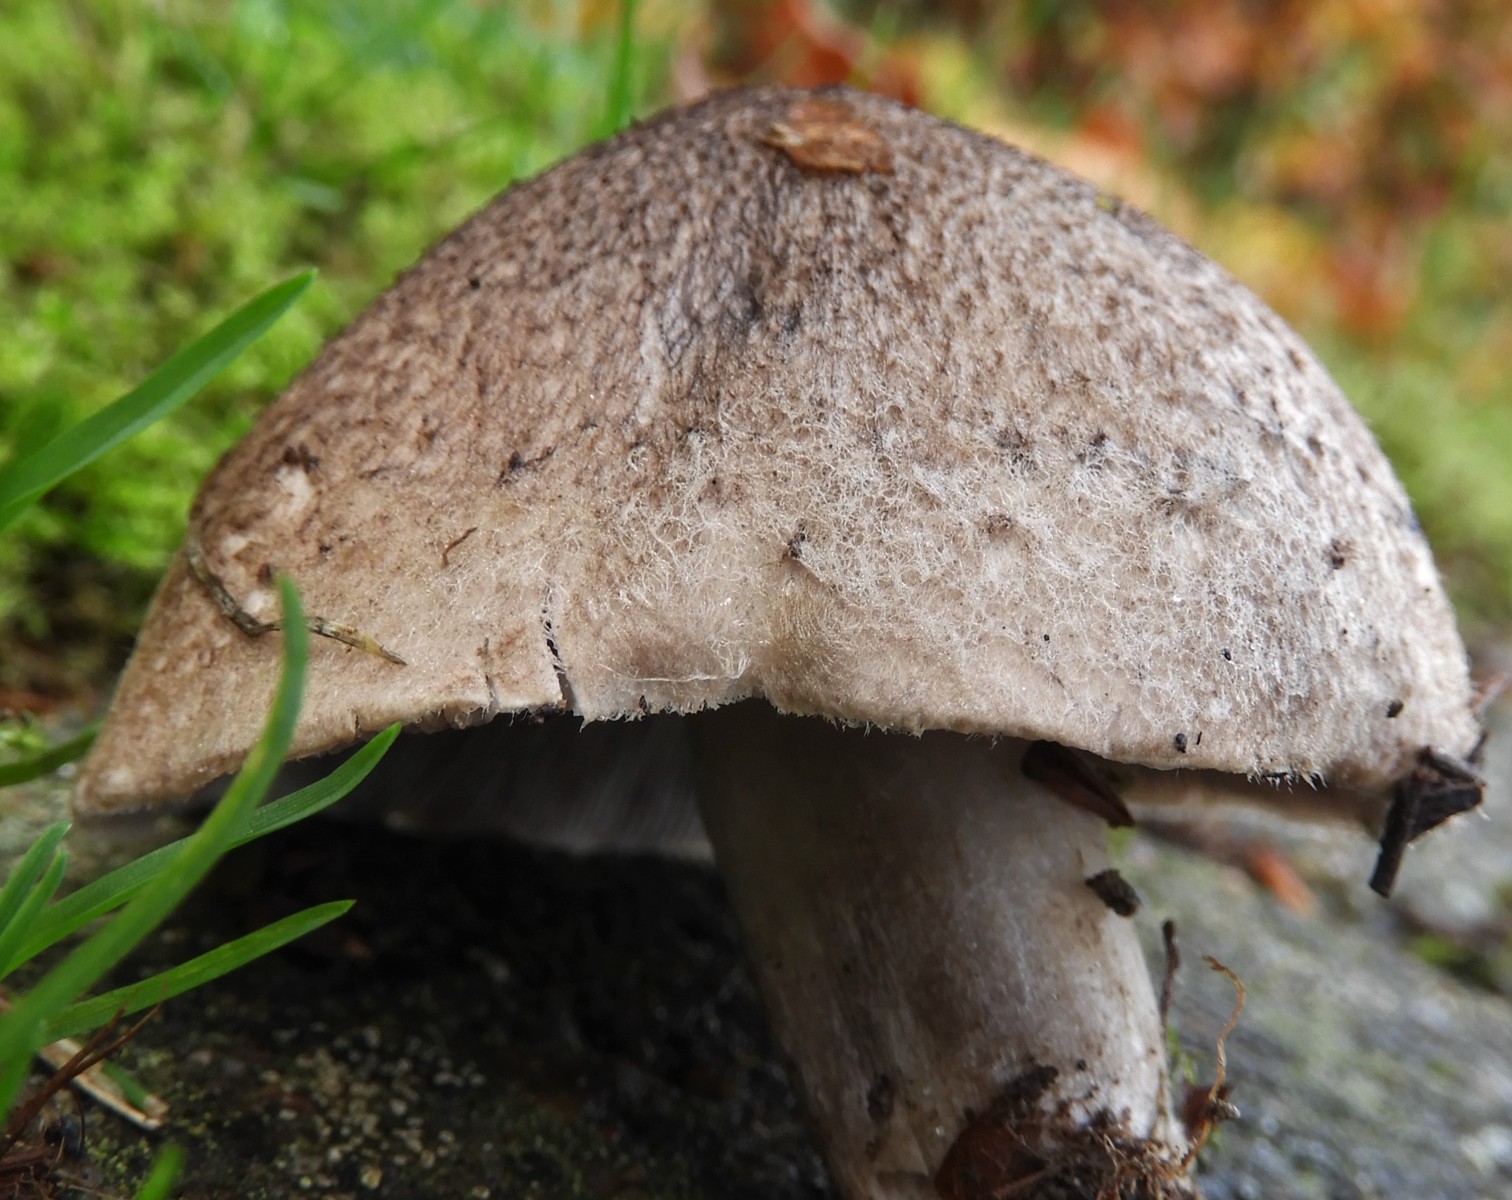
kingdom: Fungi
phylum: Basidiomycota
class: Agaricomycetes
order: Agaricales
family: Tricholomataceae
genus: Tricholoma
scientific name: Tricholoma argyraceum
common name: slør-ridderhat
